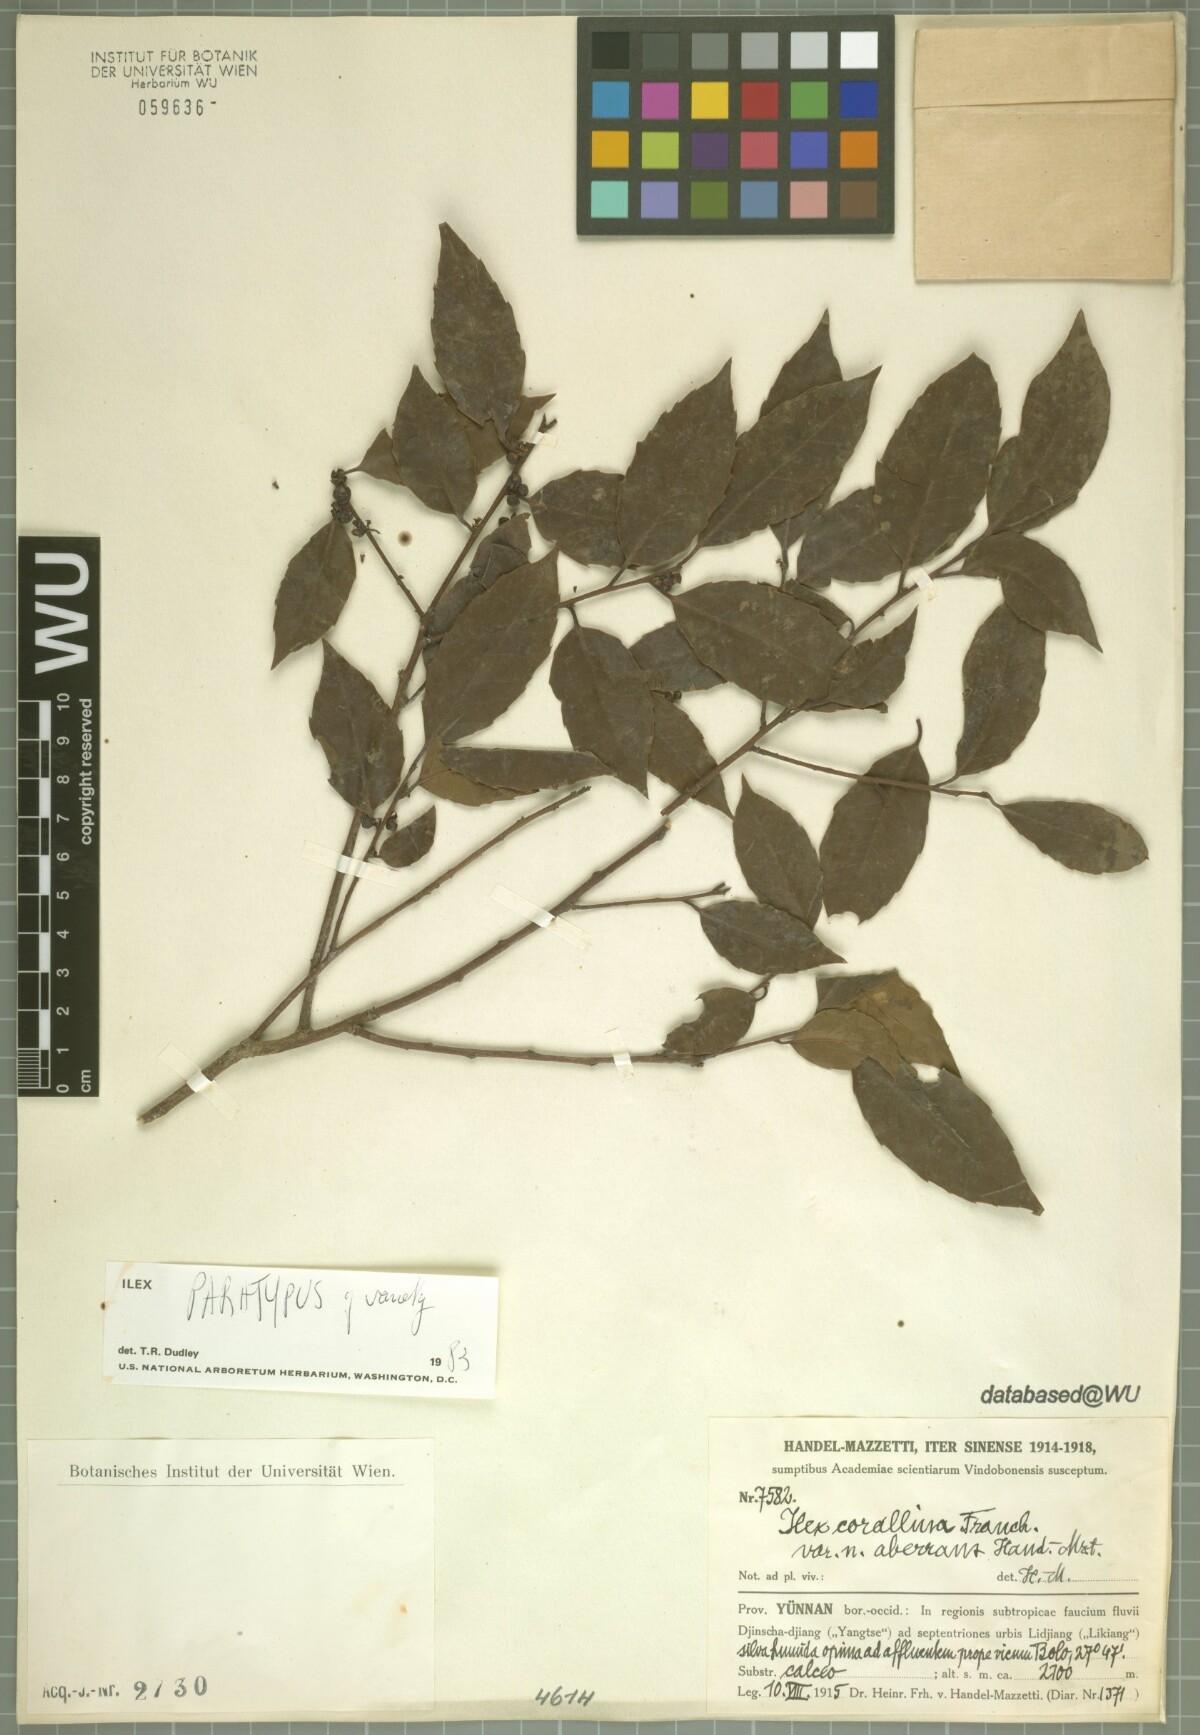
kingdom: Plantae
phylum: Tracheophyta
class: Magnoliopsida
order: Aquifoliales
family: Aquifoliaceae
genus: Ilex
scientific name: Ilex corallina
